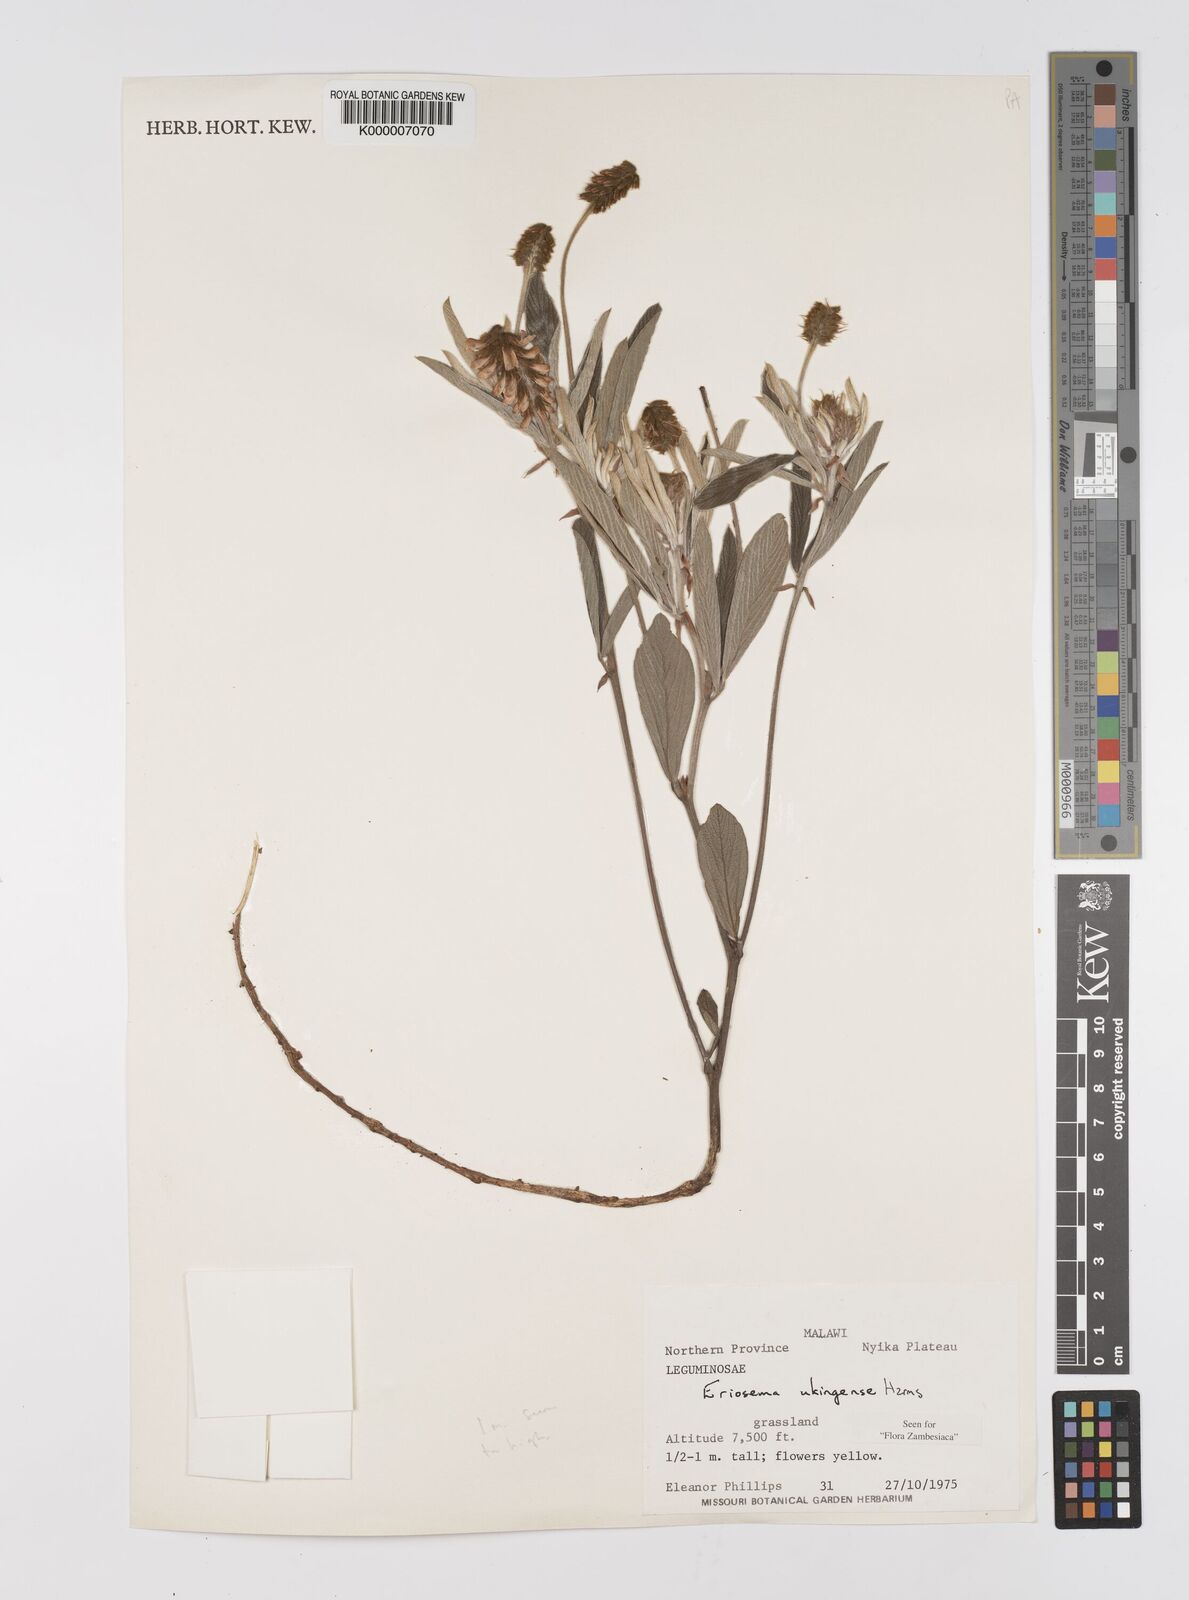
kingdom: Plantae
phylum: Tracheophyta
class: Magnoliopsida
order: Fabales
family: Fabaceae
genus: Eriosema
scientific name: Eriosema ukingense
